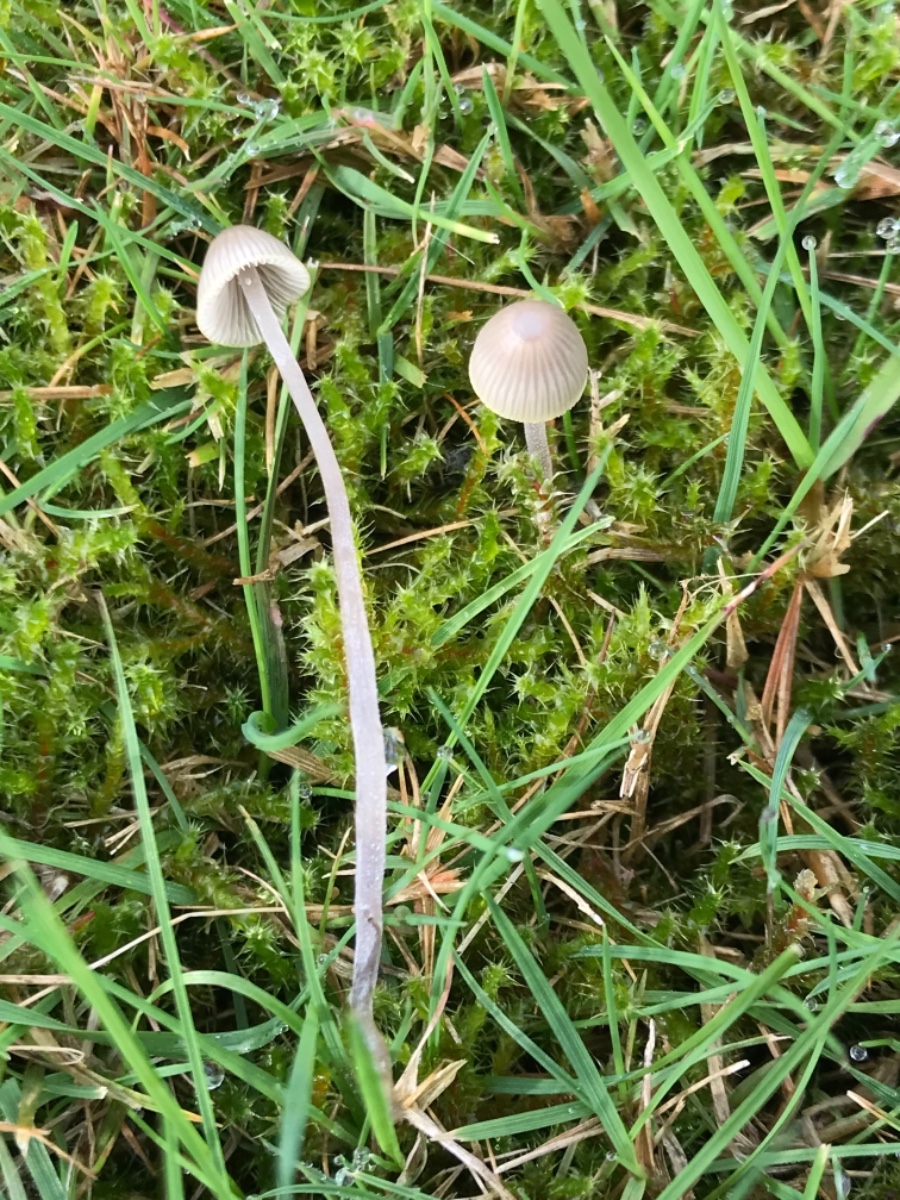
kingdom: Fungi
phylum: Basidiomycota
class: Agaricomycetes
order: Agaricales
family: Mycenaceae
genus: Mycena
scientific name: Mycena
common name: huesvamp
